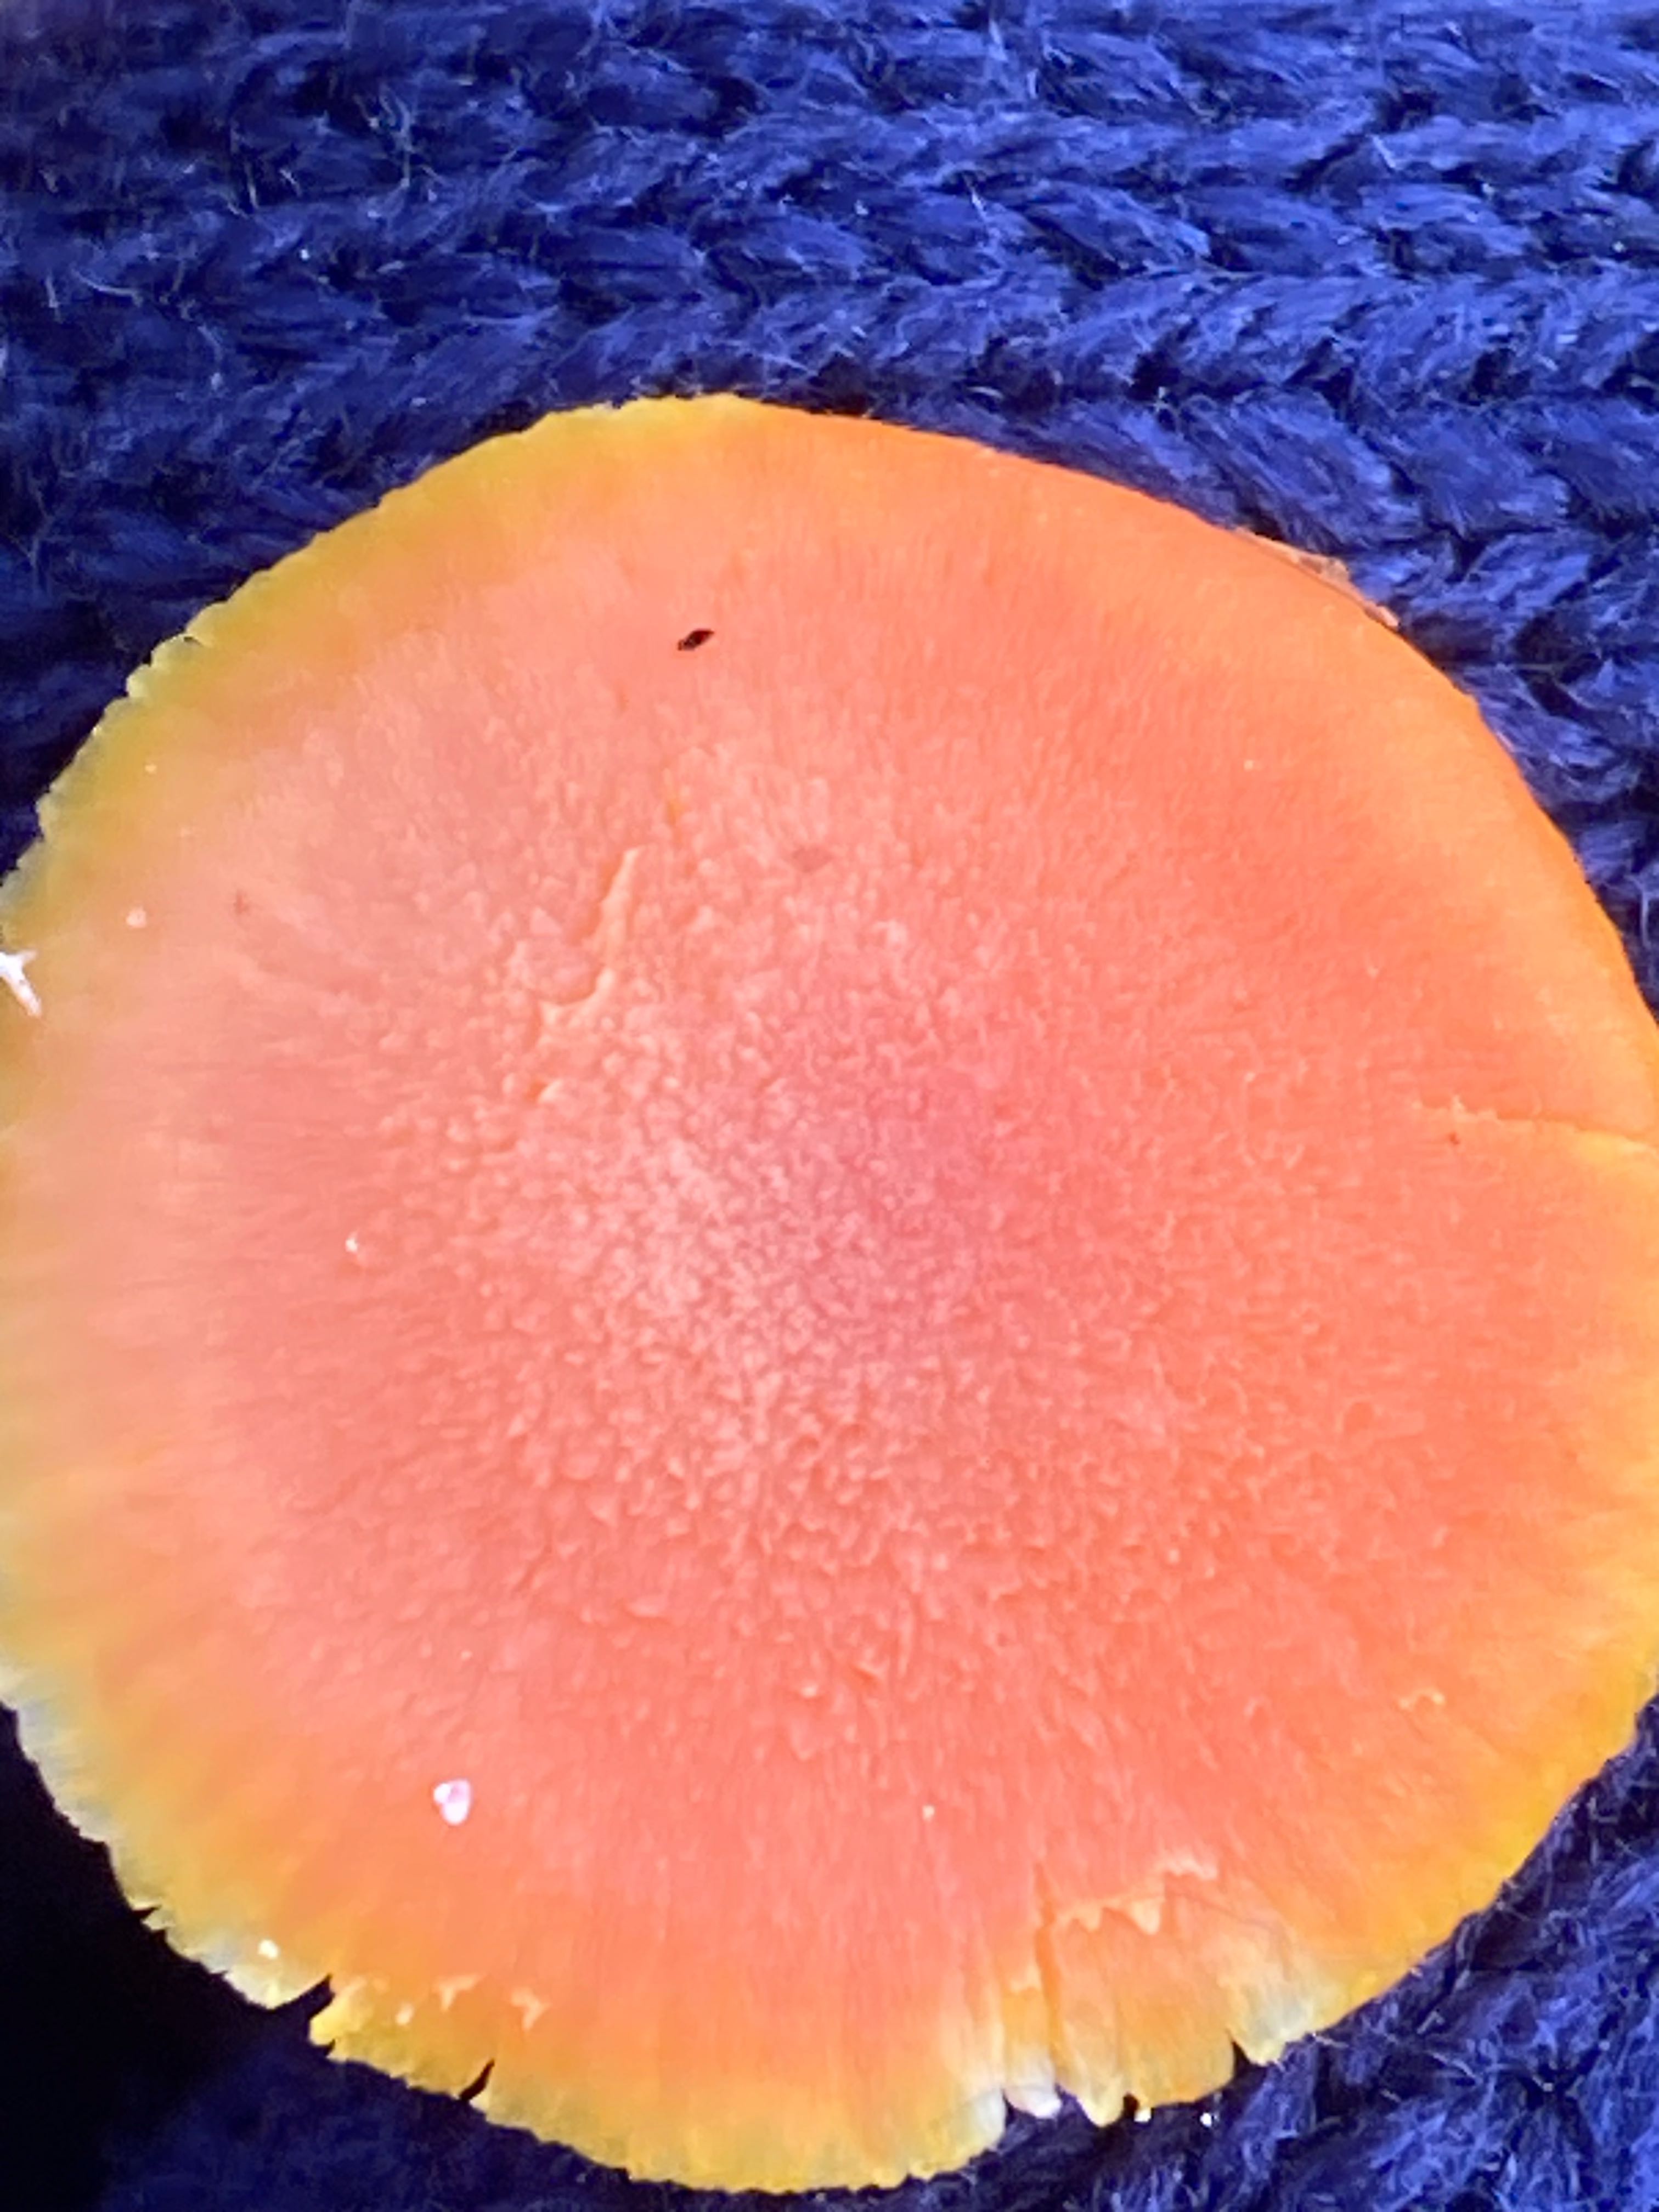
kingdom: Fungi
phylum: Basidiomycota
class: Agaricomycetes
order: Agaricales
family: Hygrophoraceae
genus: Hygrocybe
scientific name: Hygrocybe miniata
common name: mønje-vokshat
